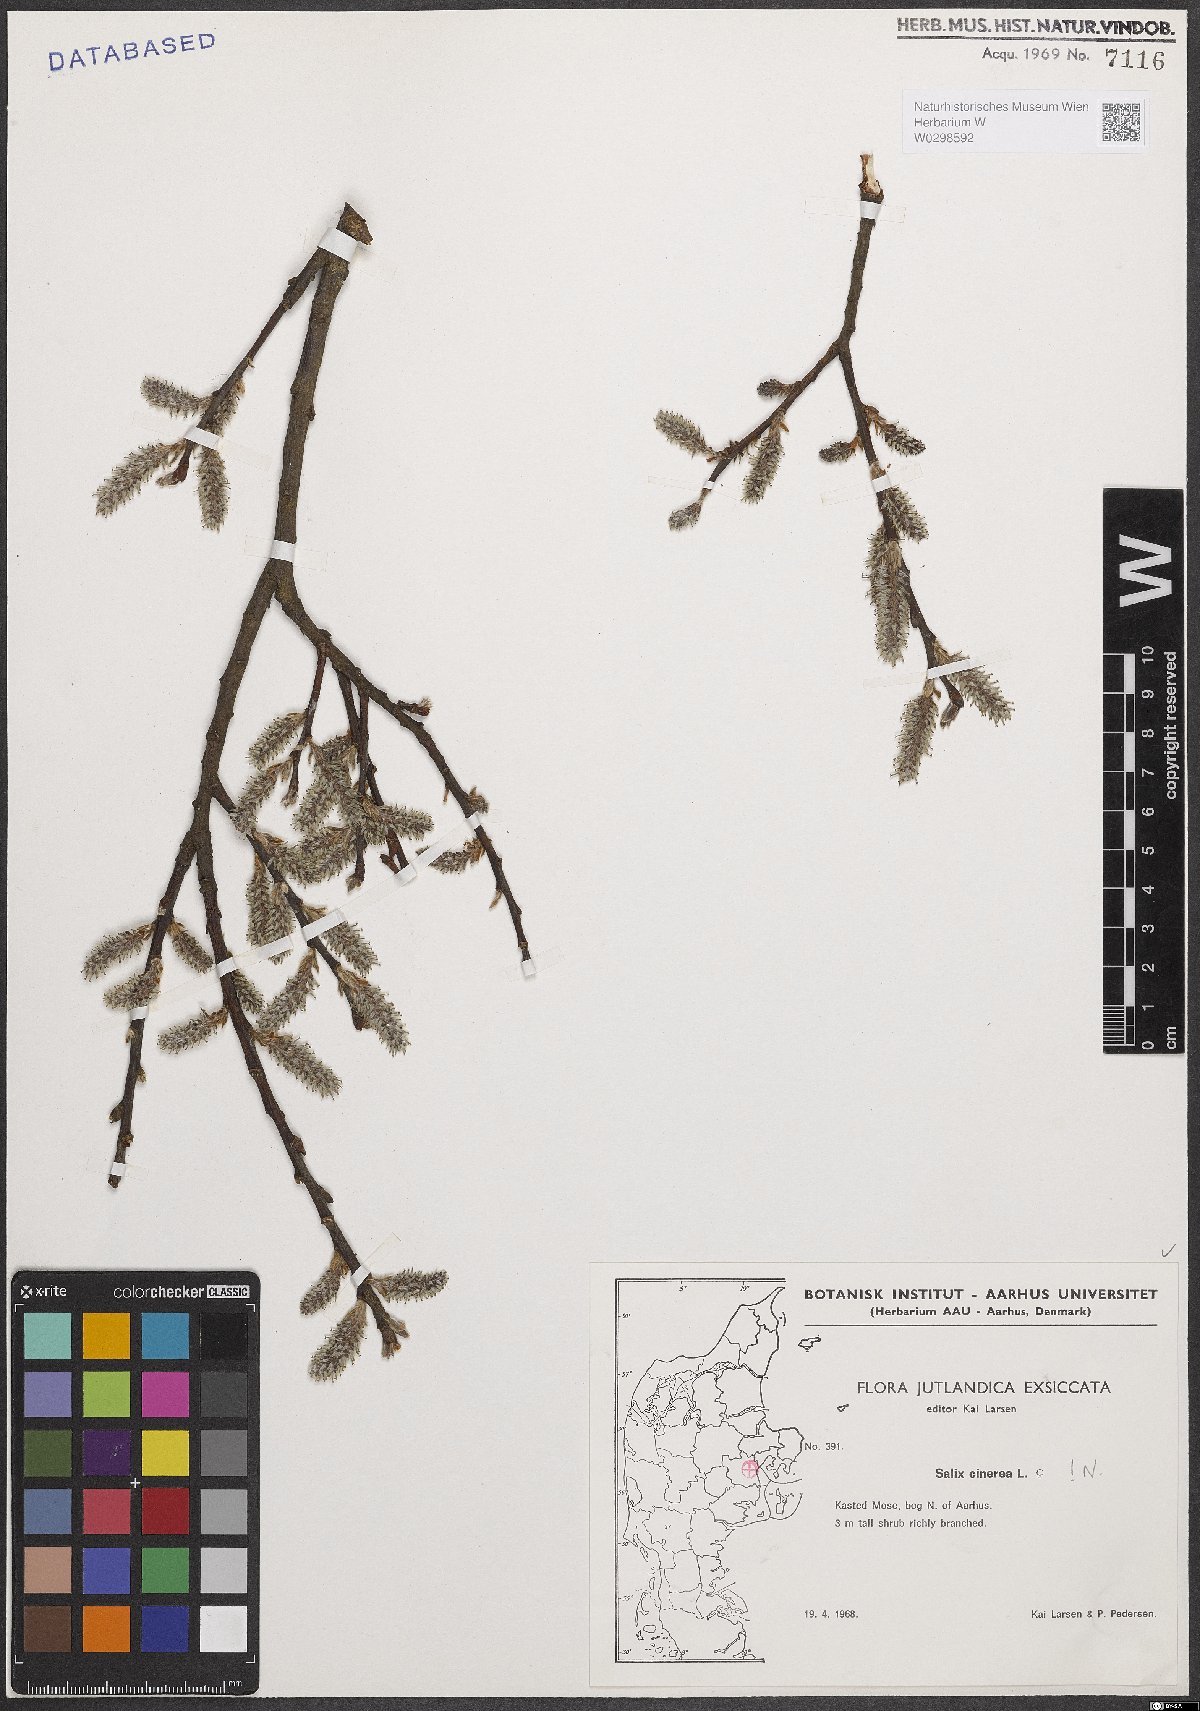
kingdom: Plantae
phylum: Tracheophyta
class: Magnoliopsida
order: Malpighiales
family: Salicaceae
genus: Salix
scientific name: Salix cinerea
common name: Common sallow
